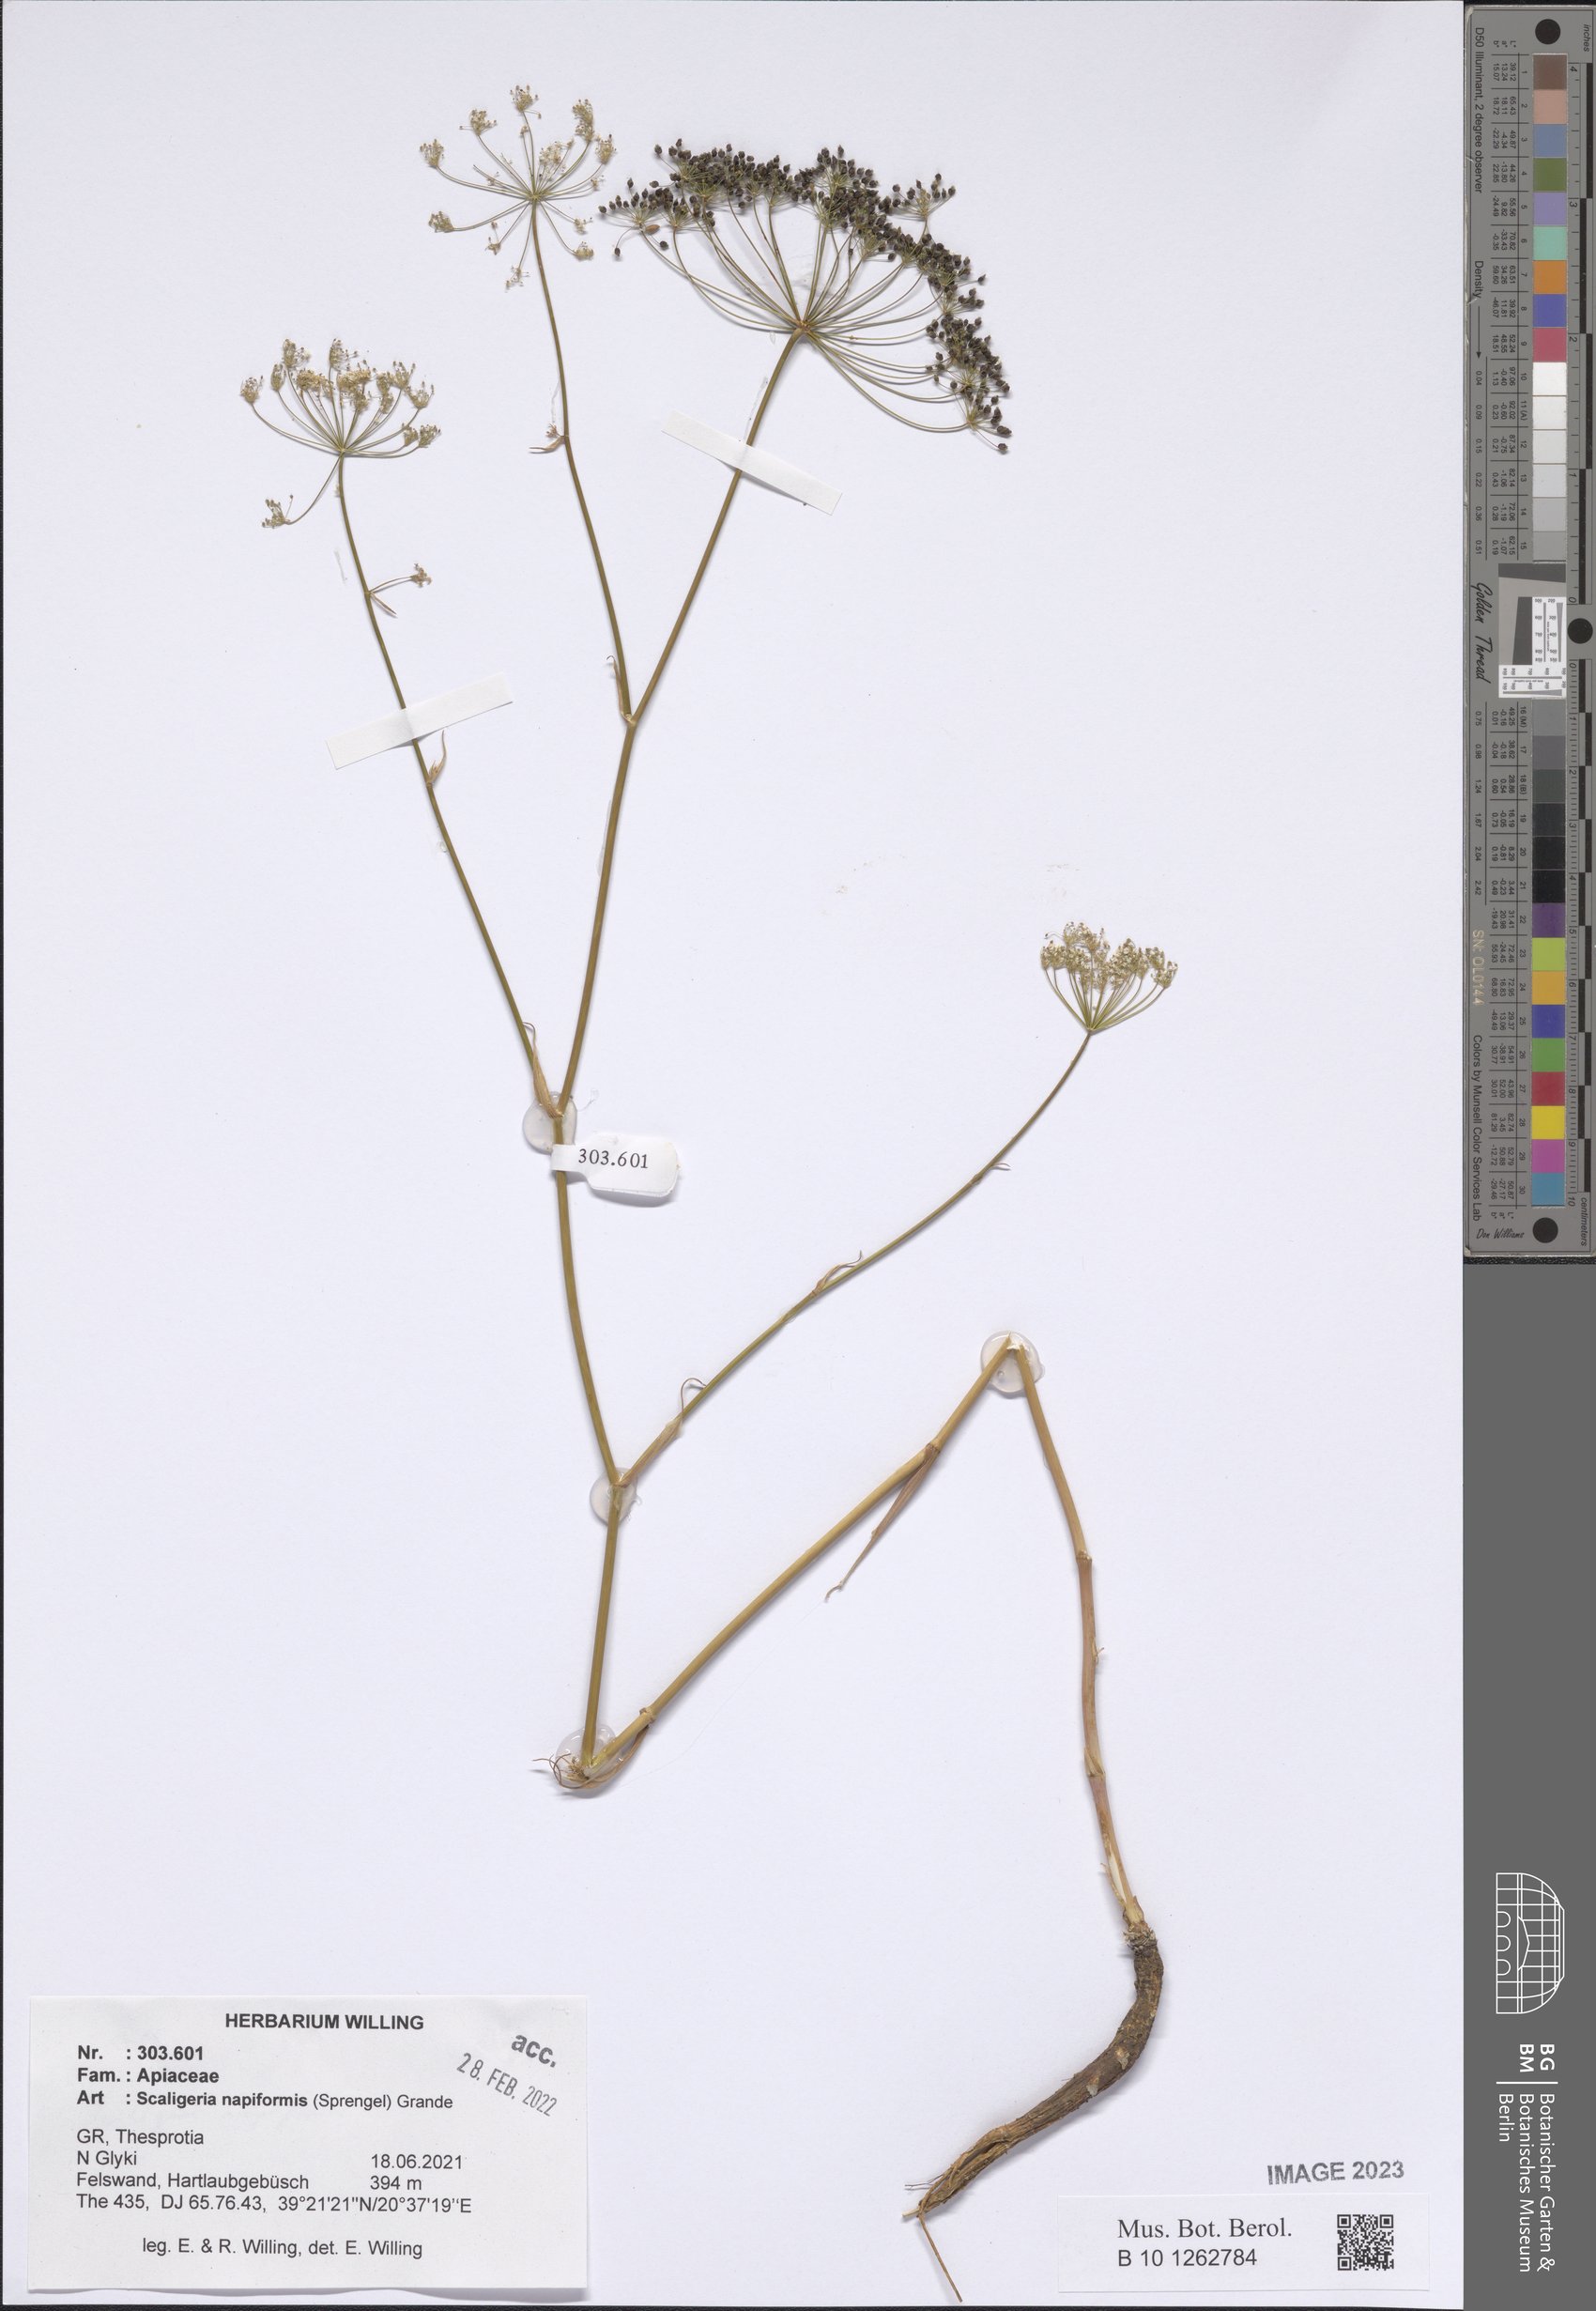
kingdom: Plantae
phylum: Tracheophyta
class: Magnoliopsida
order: Apiales
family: Apiaceae
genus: Scaligeria
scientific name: Scaligeria napiformis
